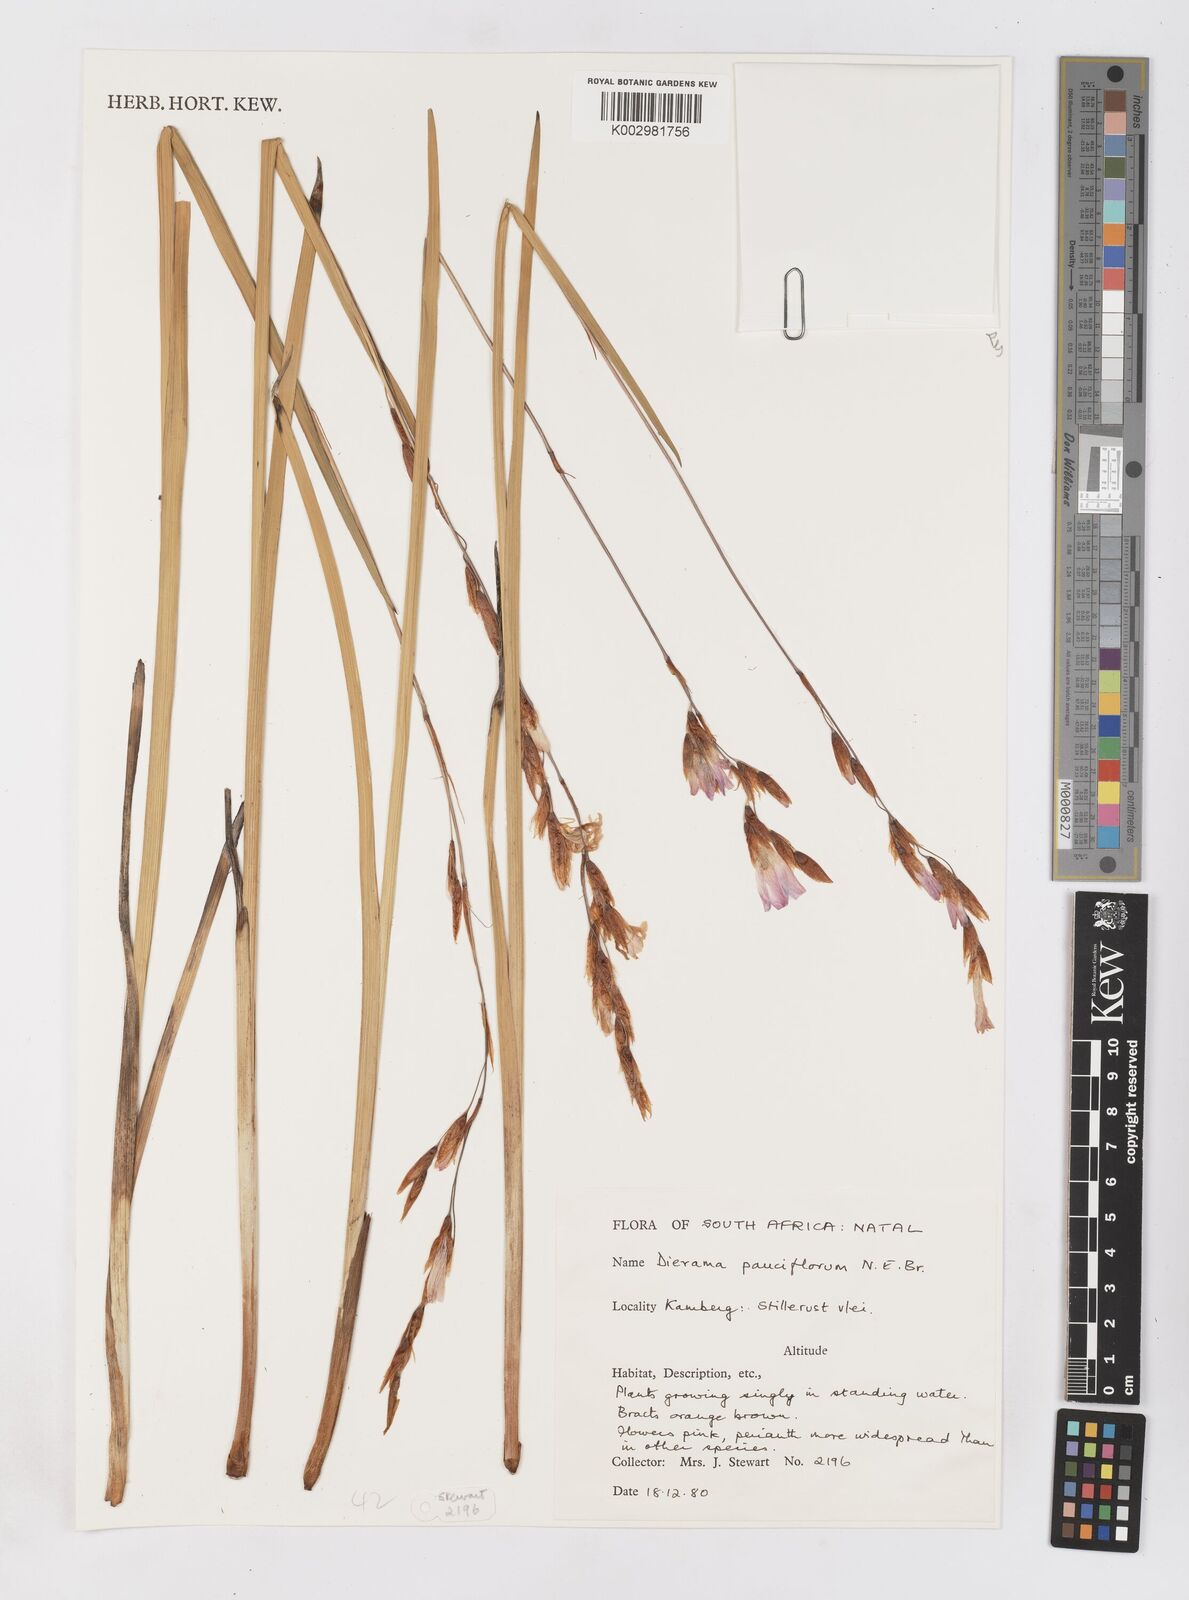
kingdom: Plantae
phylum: Tracheophyta
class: Liliopsida
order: Asparagales
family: Iridaceae
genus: Dierama
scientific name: Dierama pauciflorum
